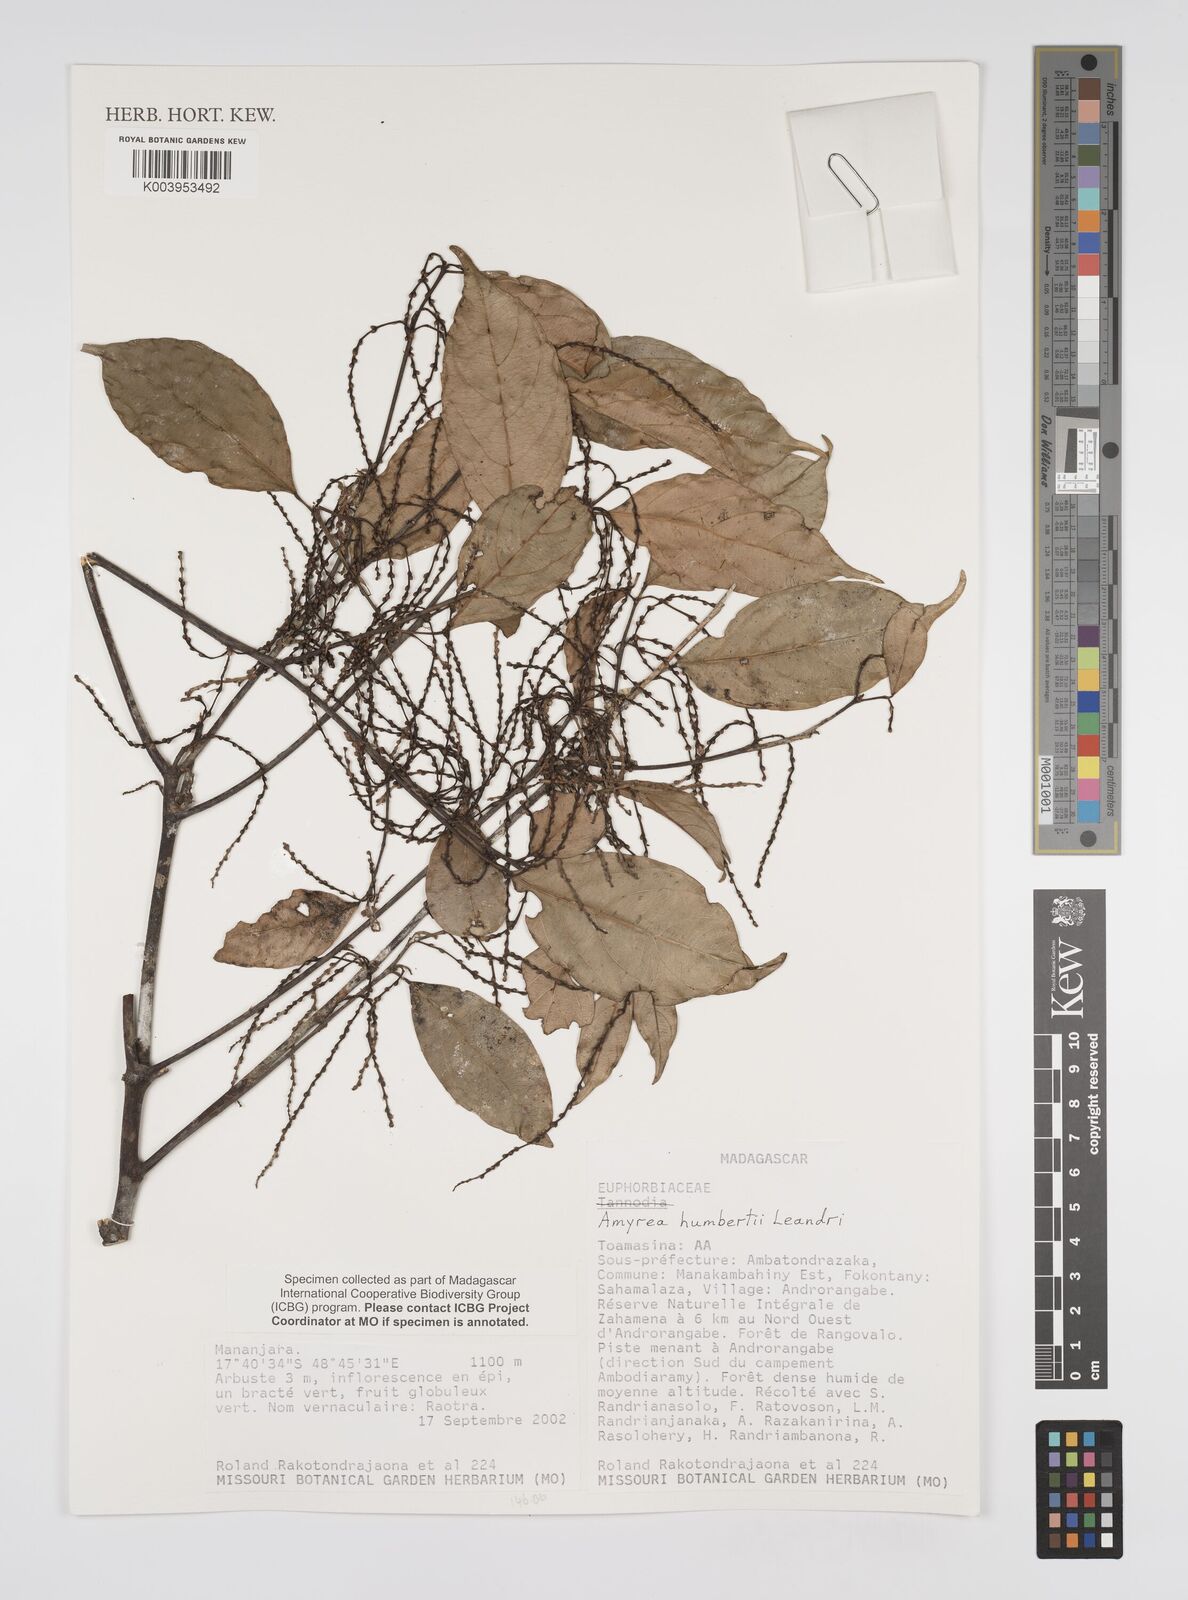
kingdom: Plantae
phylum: Tracheophyta
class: Magnoliopsida
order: Malpighiales
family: Euphorbiaceae
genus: Amyrea
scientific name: Amyrea humbertii
